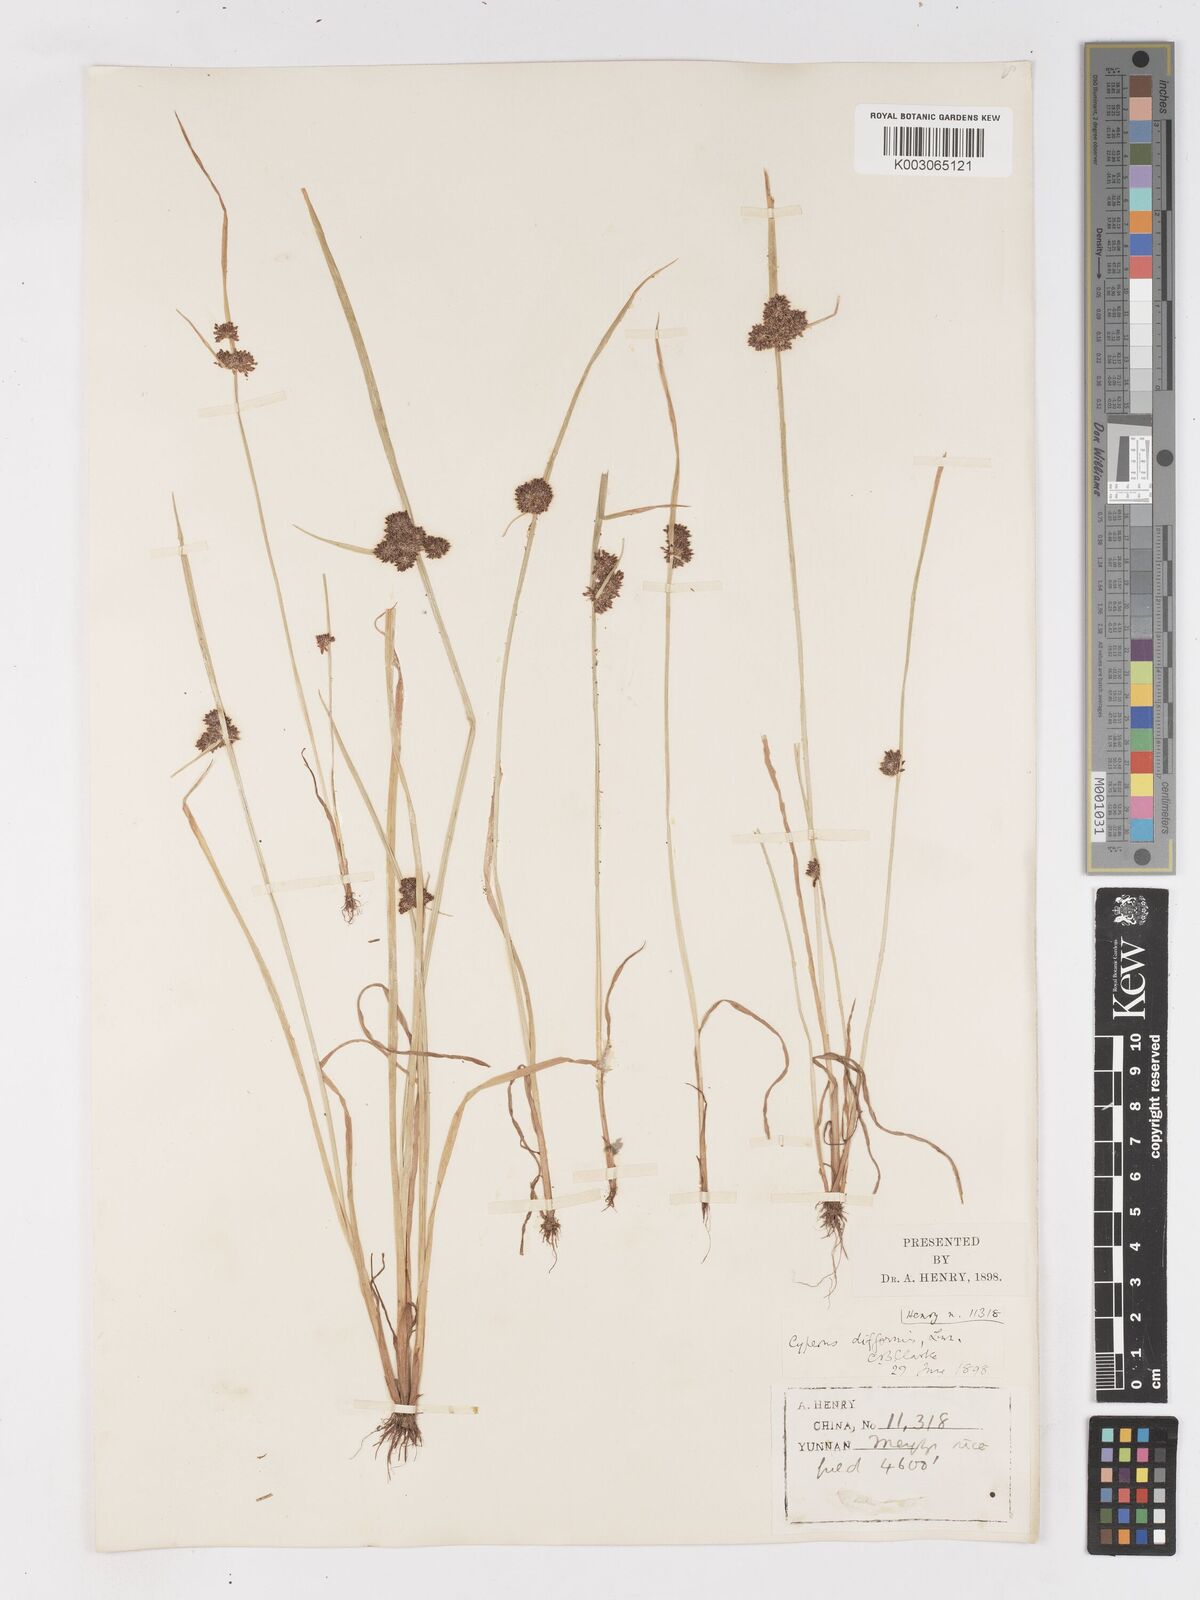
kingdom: Plantae
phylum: Tracheophyta
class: Liliopsida
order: Poales
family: Cyperaceae
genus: Cyperus
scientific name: Cyperus difformis
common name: Variable flatsedge
